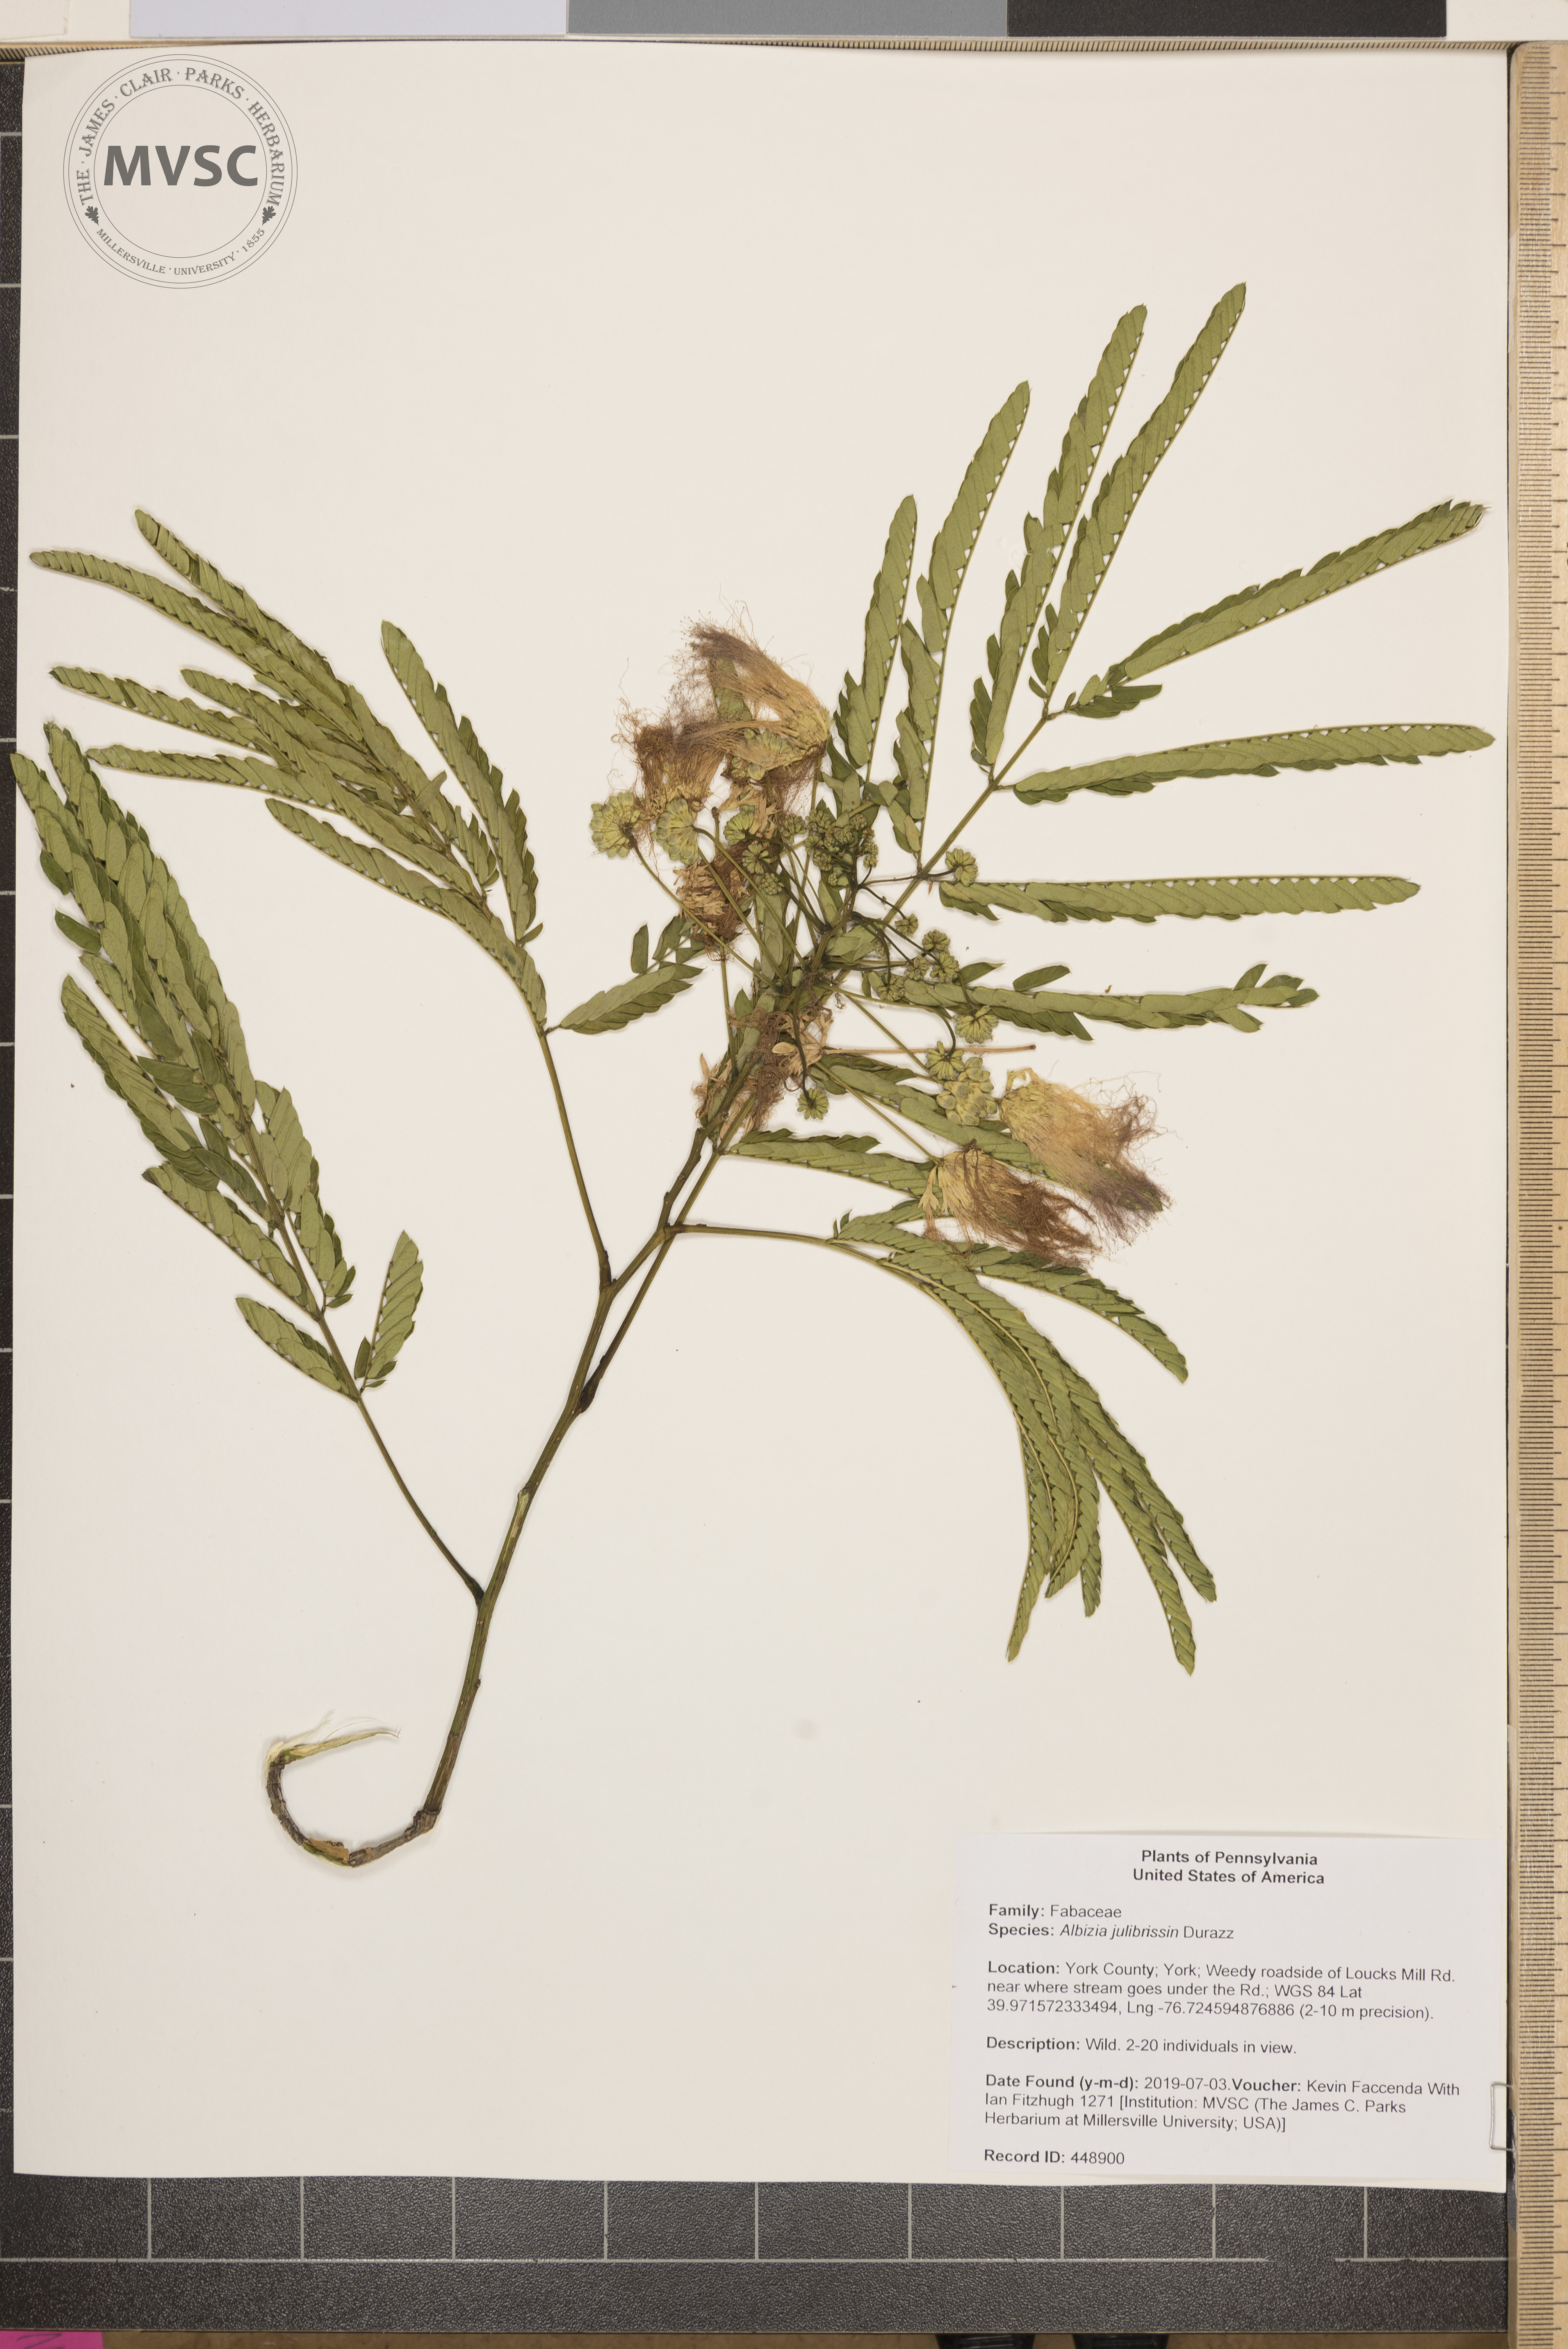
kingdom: Plantae
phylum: Tracheophyta
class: Magnoliopsida
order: Fabales
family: Fabaceae
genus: Albizia
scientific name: Albizia julibrissin
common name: Silktree
